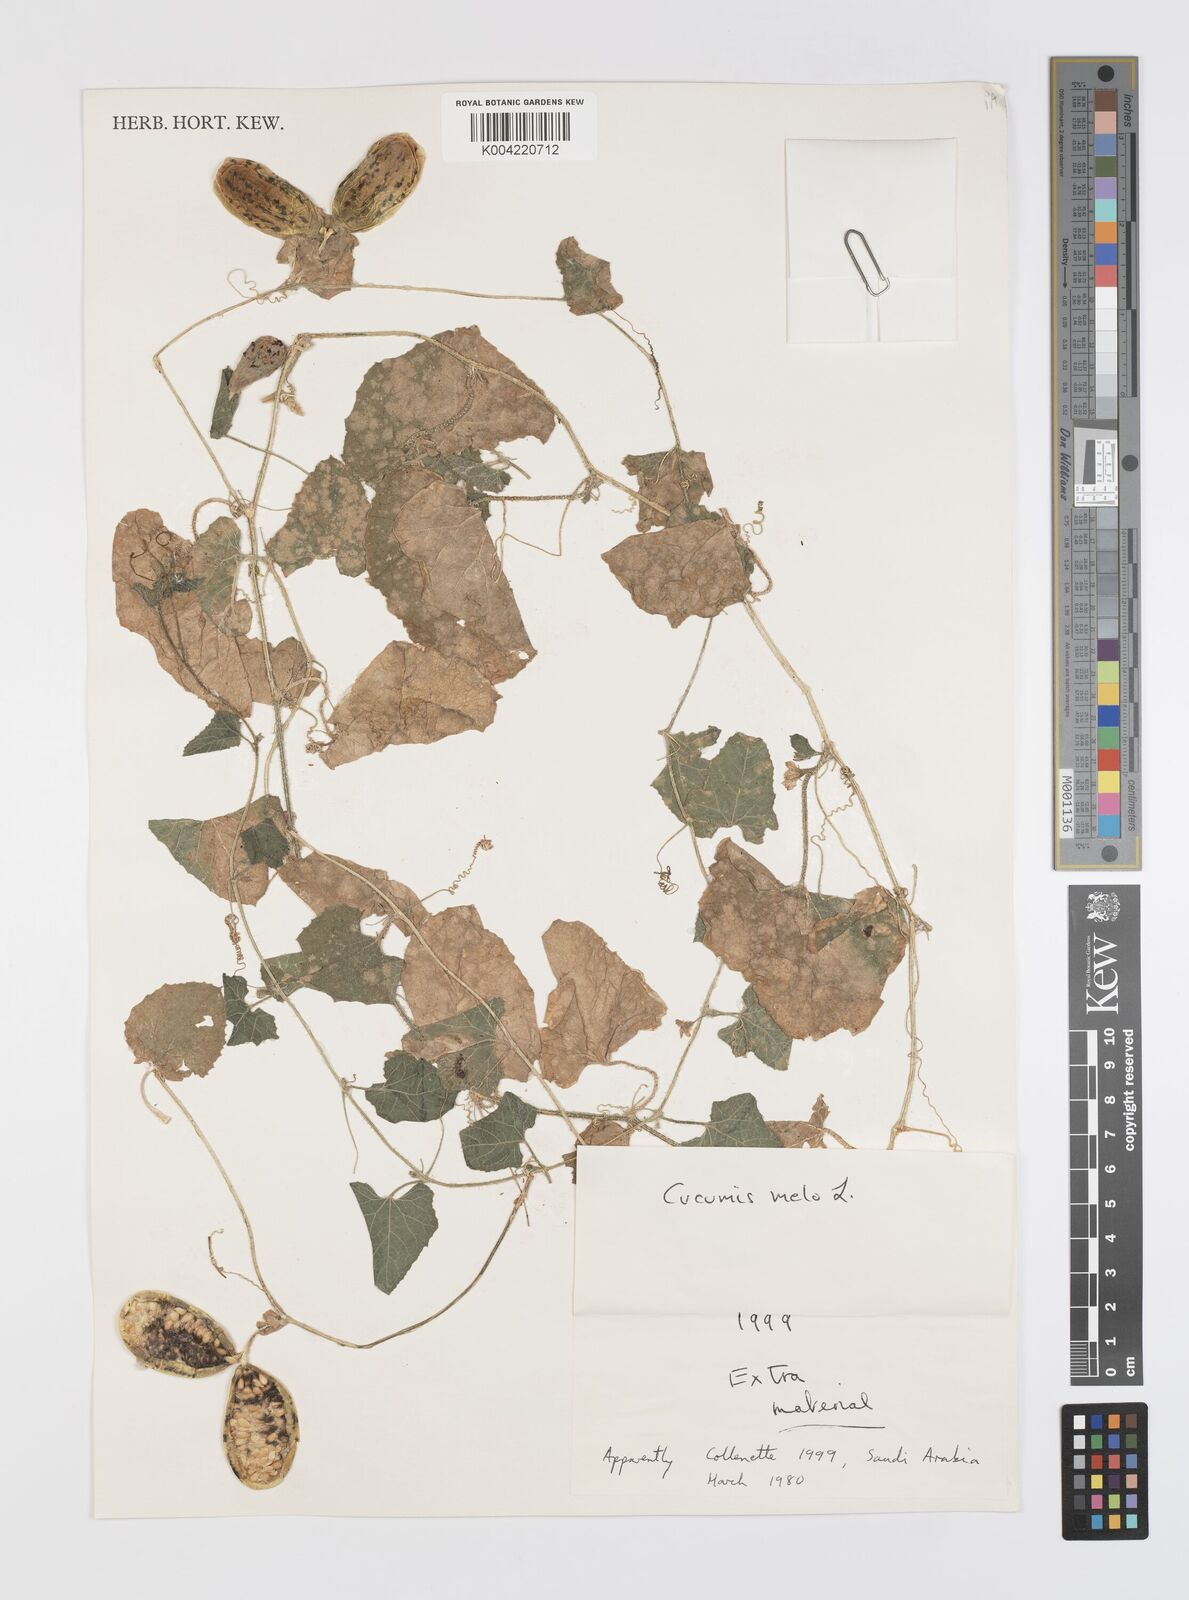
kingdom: Plantae
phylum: Tracheophyta
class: Magnoliopsida
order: Cucurbitales
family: Cucurbitaceae
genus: Cucumis
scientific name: Cucumis melo
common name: Melon
